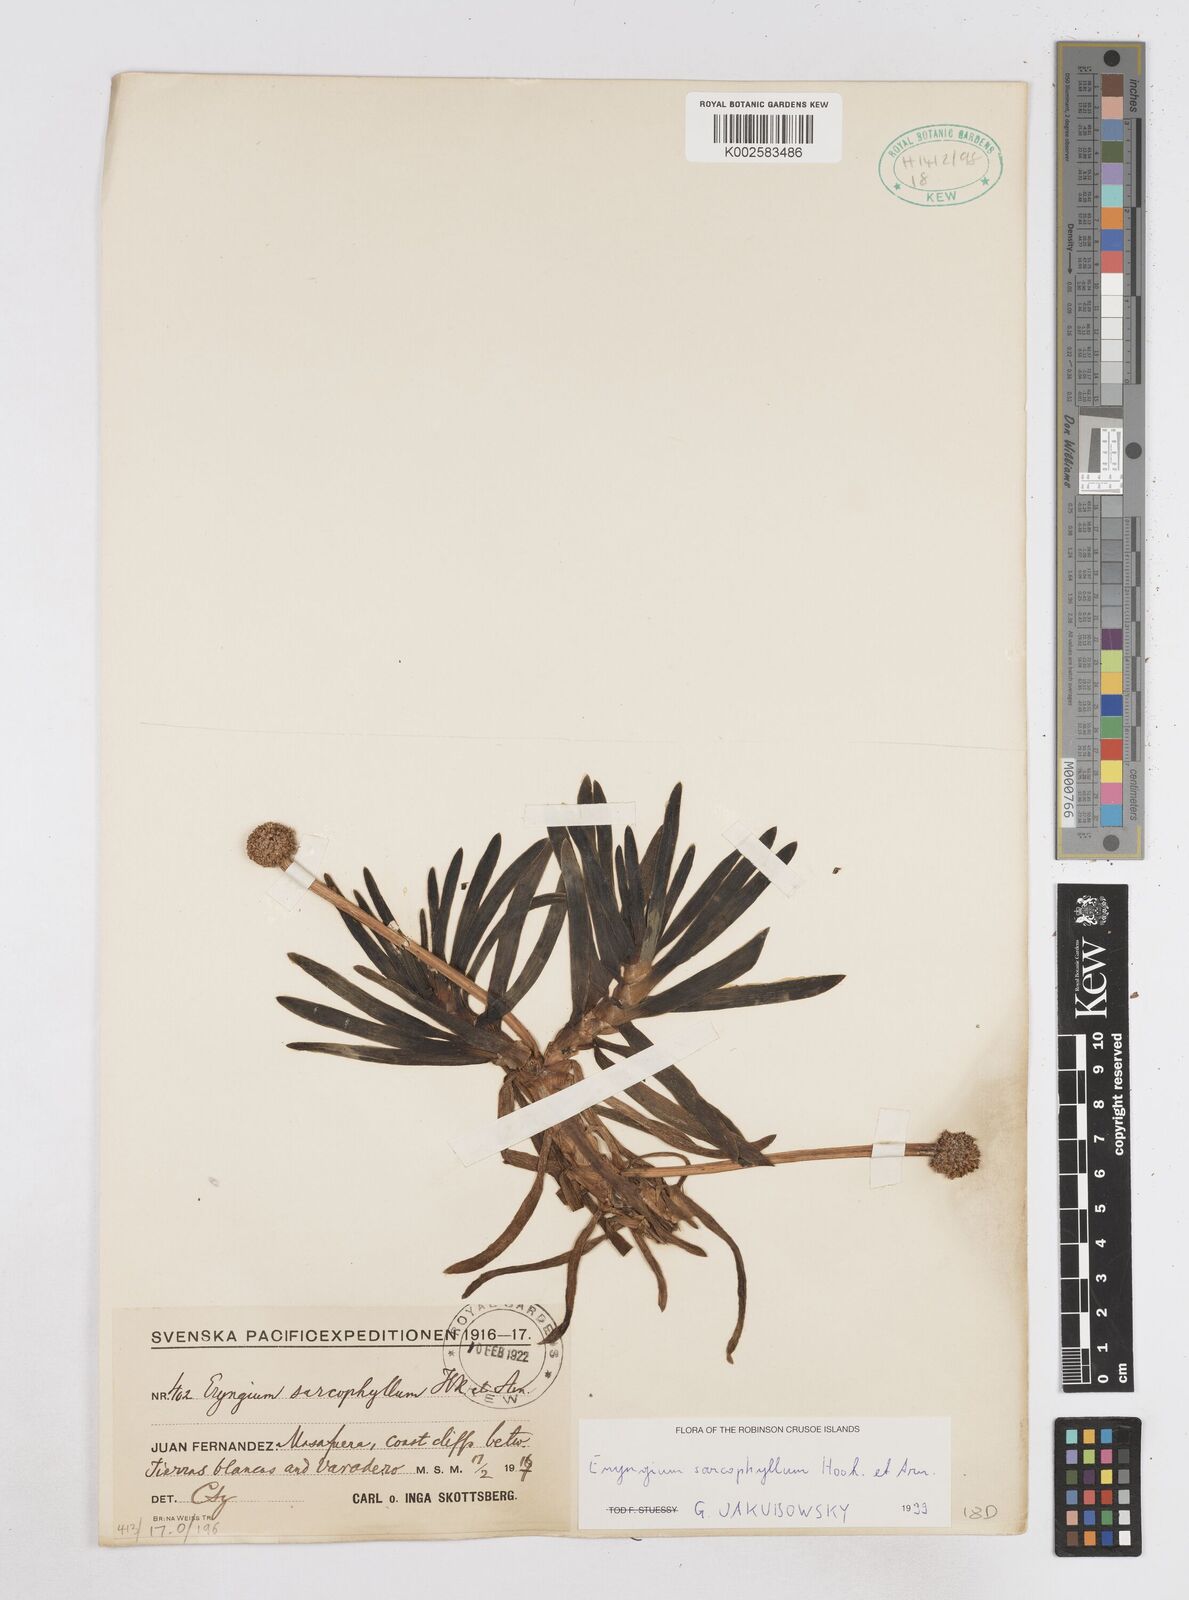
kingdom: Plantae
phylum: Tracheophyta
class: Magnoliopsida
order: Apiales
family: Apiaceae
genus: Eryngium
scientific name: Eryngium sarcophyllum
